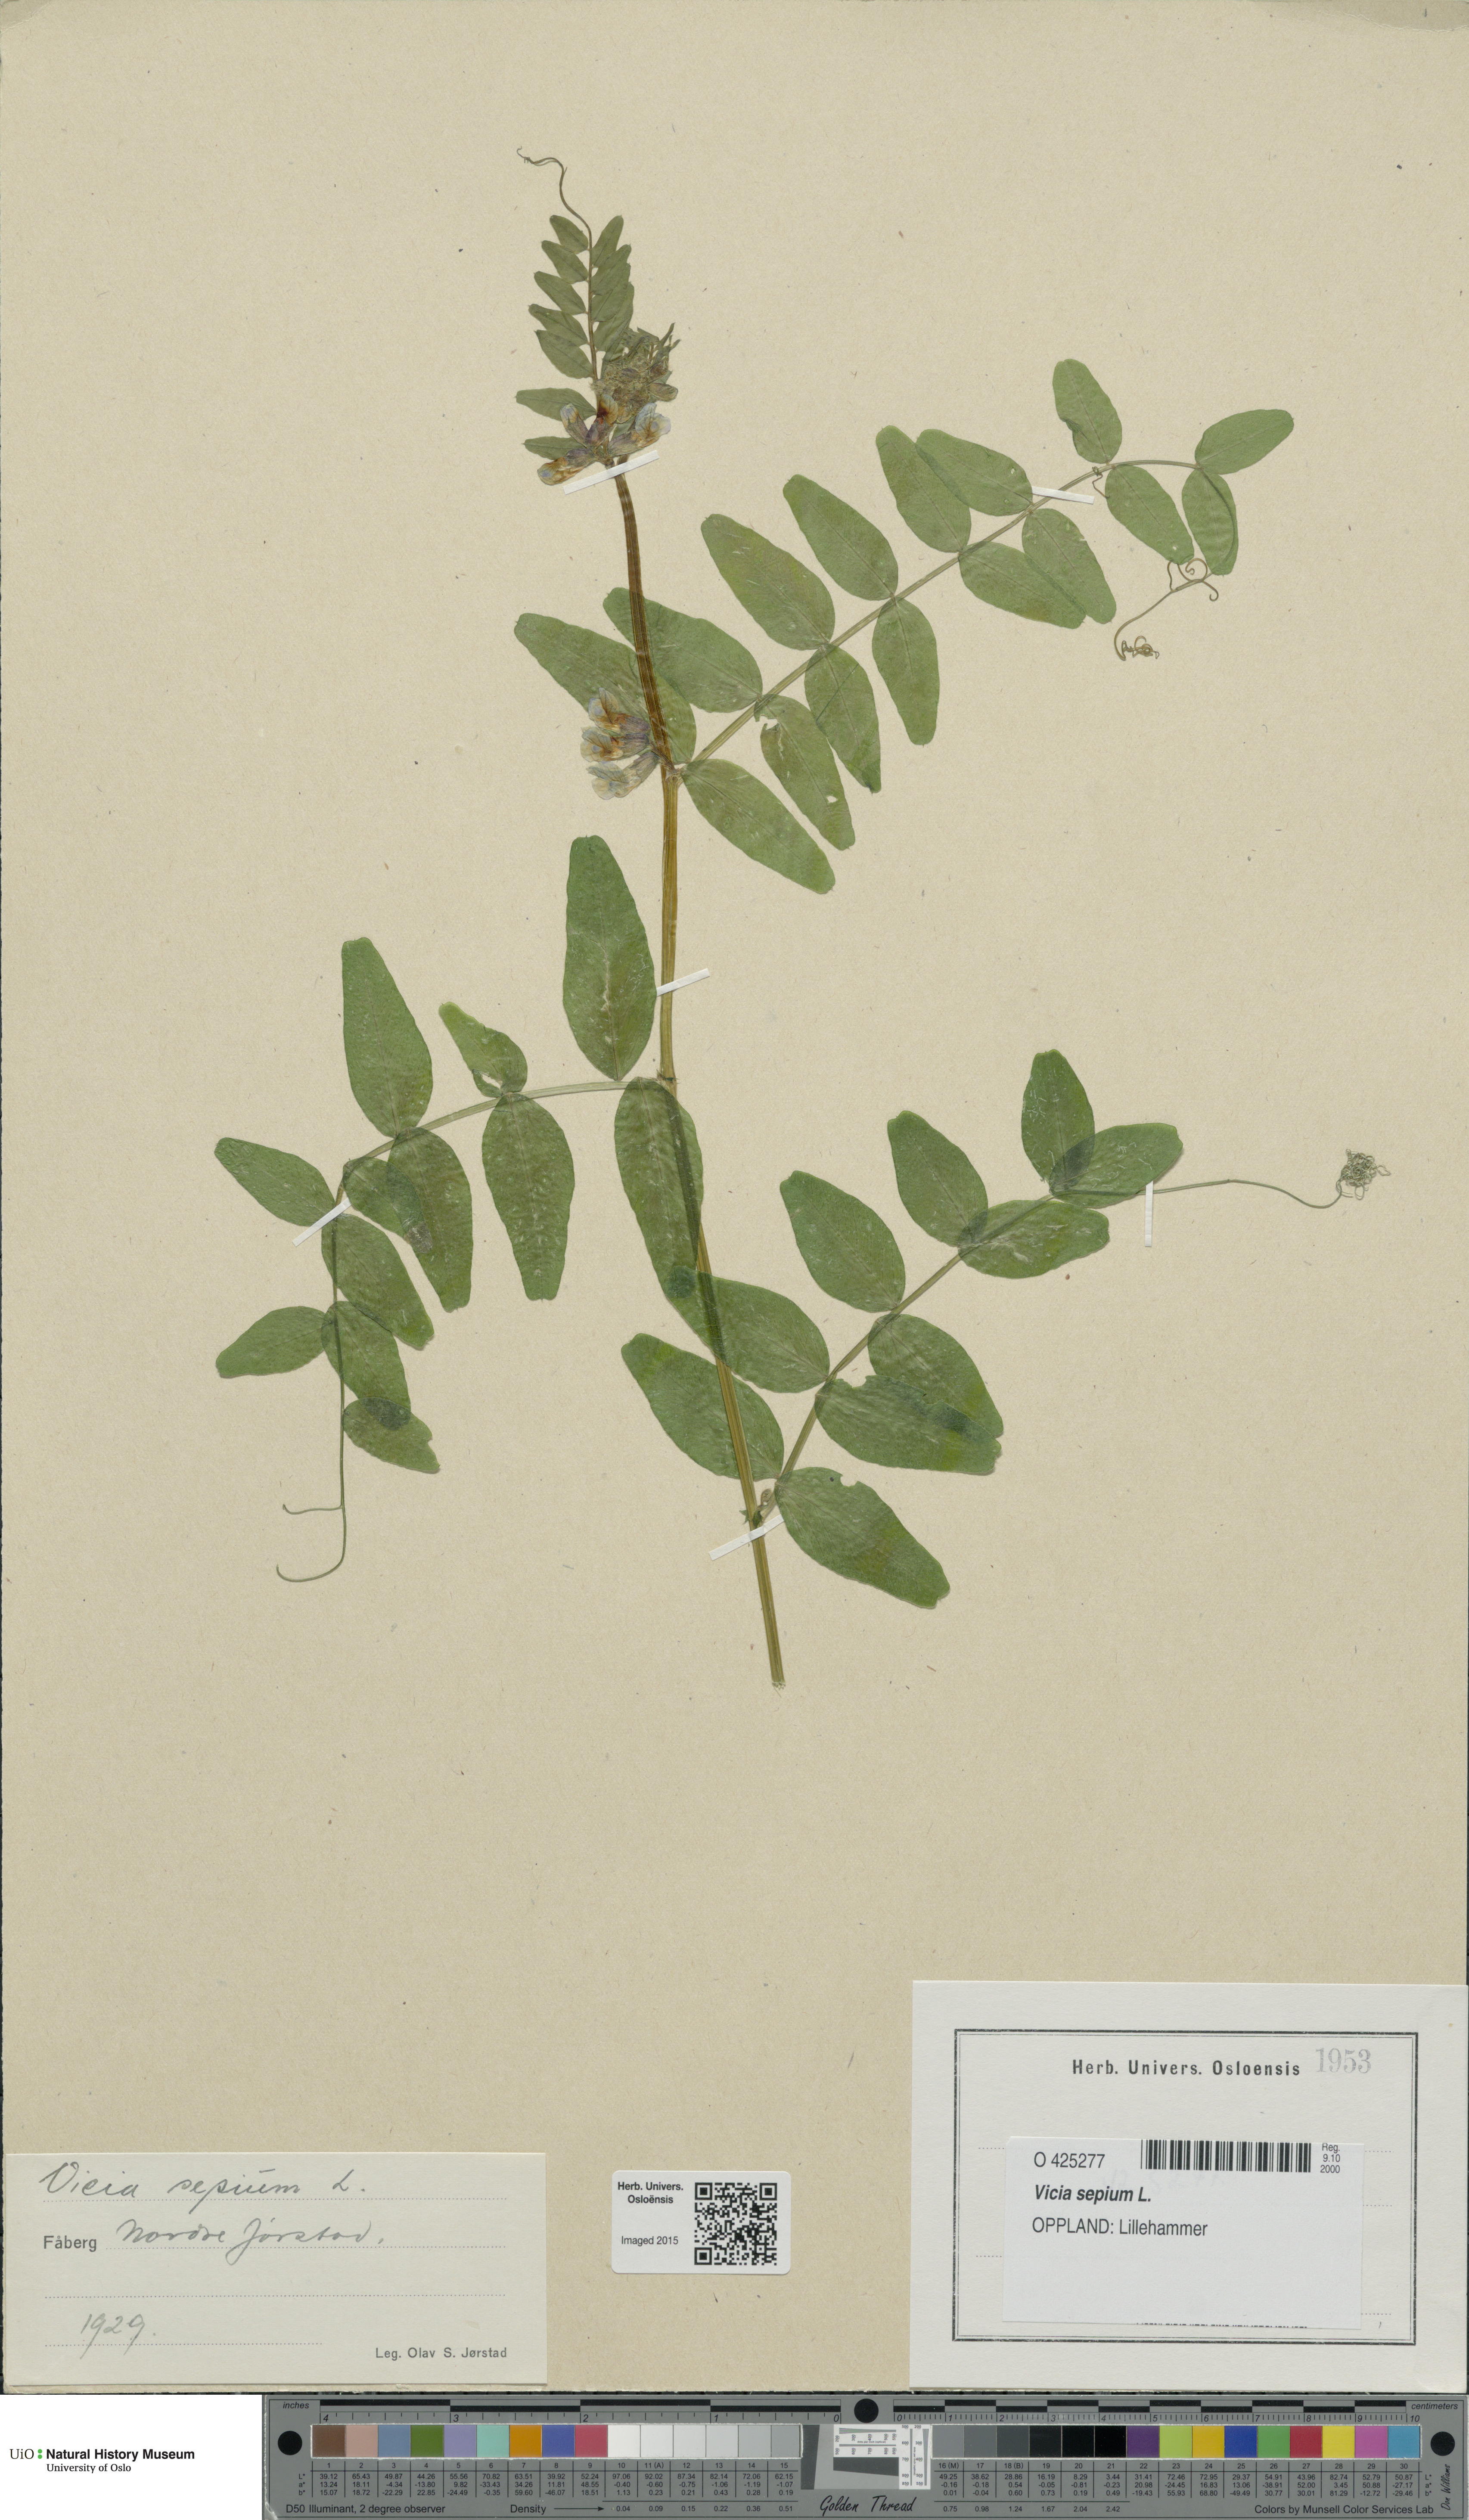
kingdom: Plantae
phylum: Tracheophyta
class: Magnoliopsida
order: Fabales
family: Fabaceae
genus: Vicia
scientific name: Vicia sepium
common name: Bush vetch
